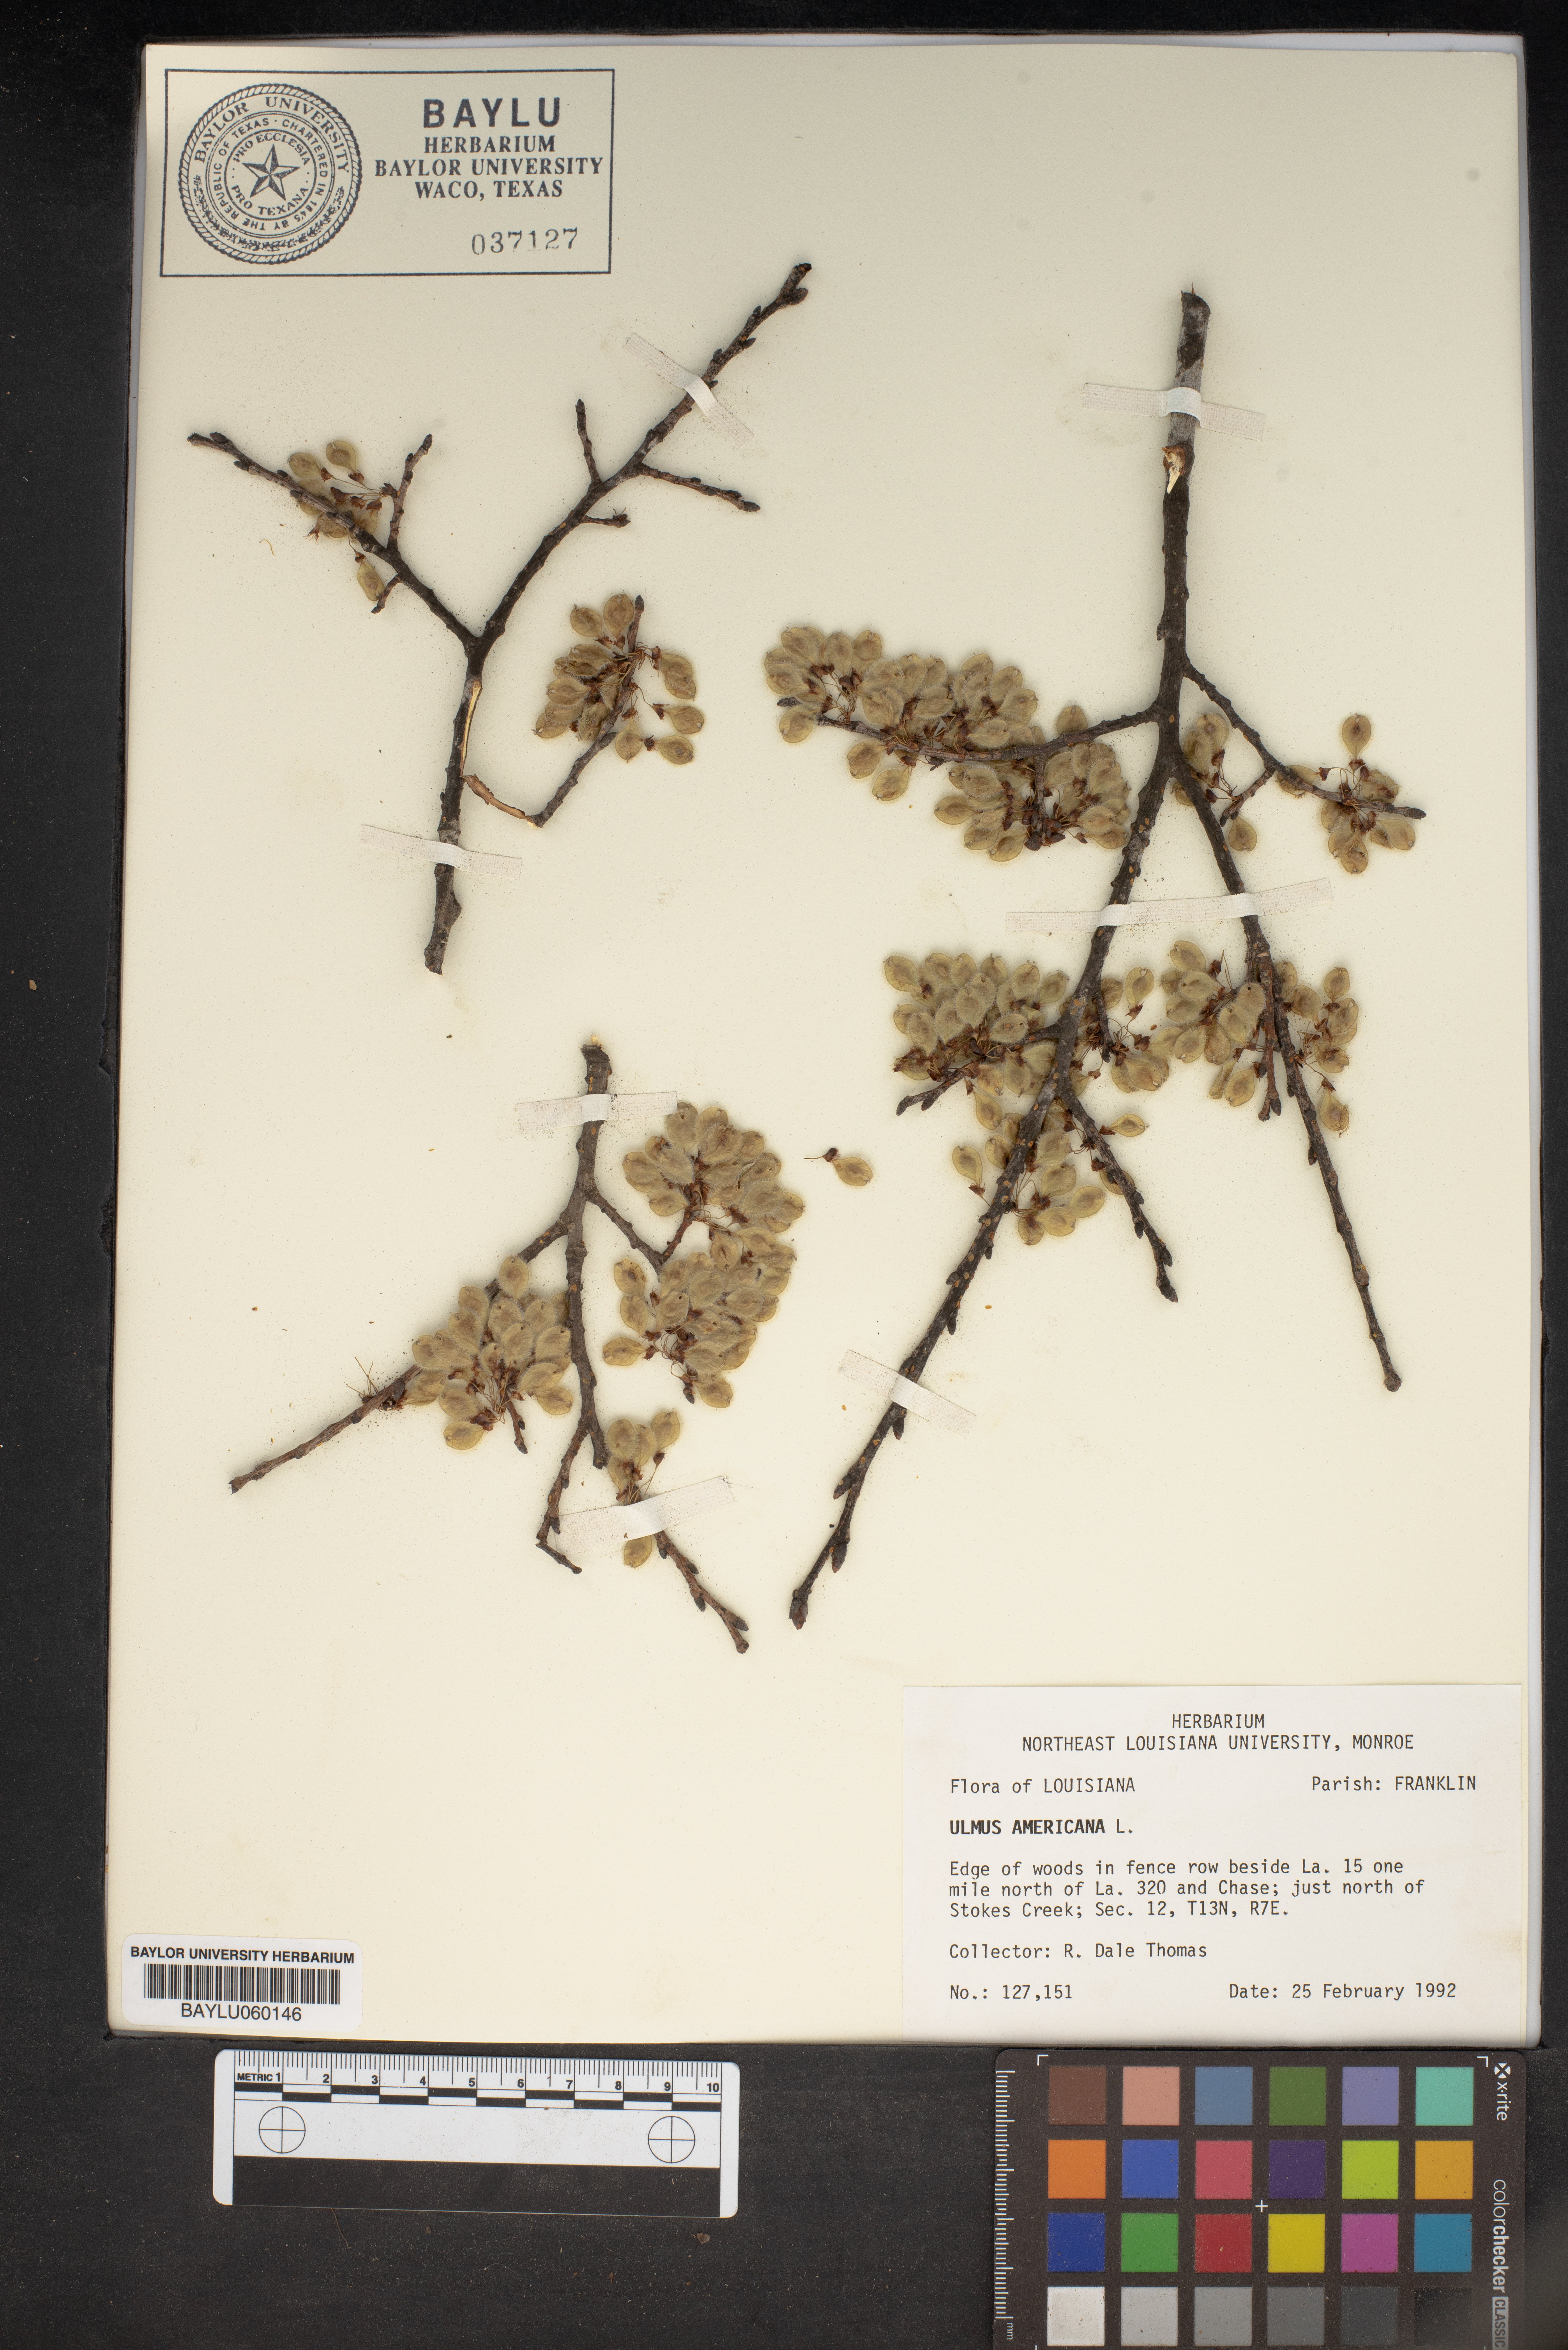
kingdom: Plantae
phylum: Tracheophyta
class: Magnoliopsida
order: Rosales
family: Ulmaceae
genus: Ulmus
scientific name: Ulmus americana
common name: American elm
